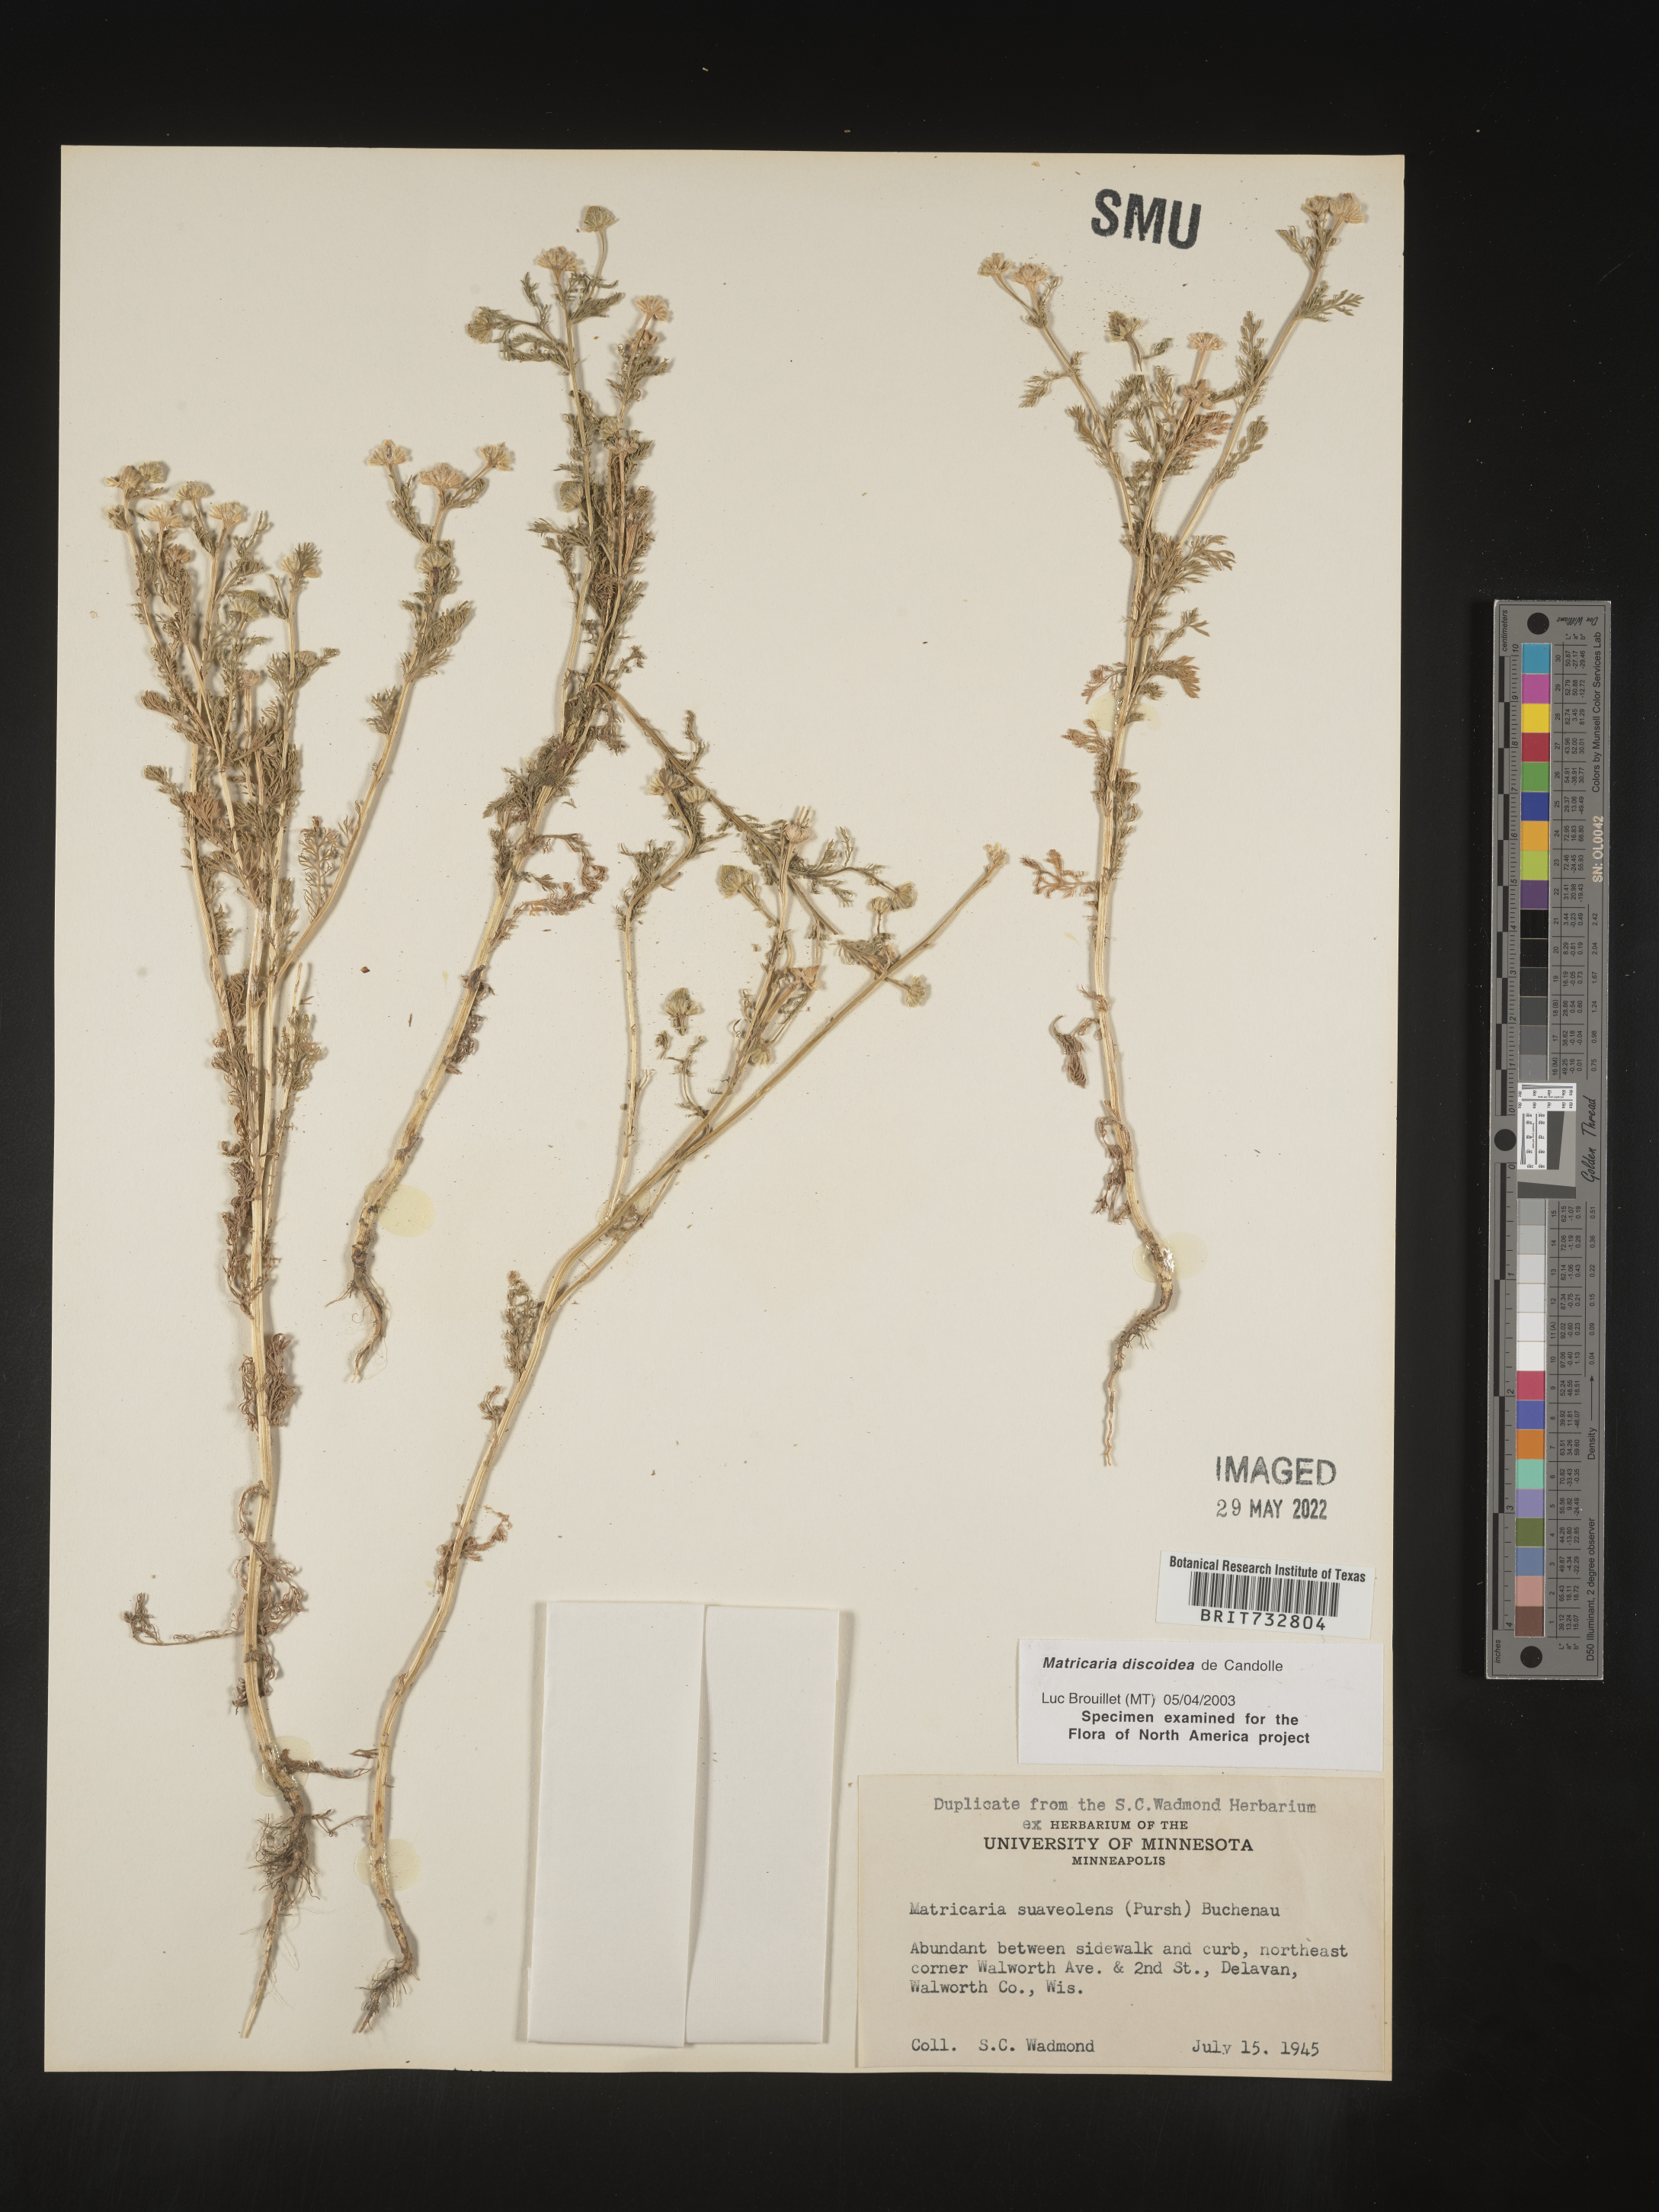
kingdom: Plantae
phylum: Tracheophyta
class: Magnoliopsida
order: Asterales
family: Asteraceae
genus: Matricaria
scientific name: Matricaria discoidea
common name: Disc mayweed
